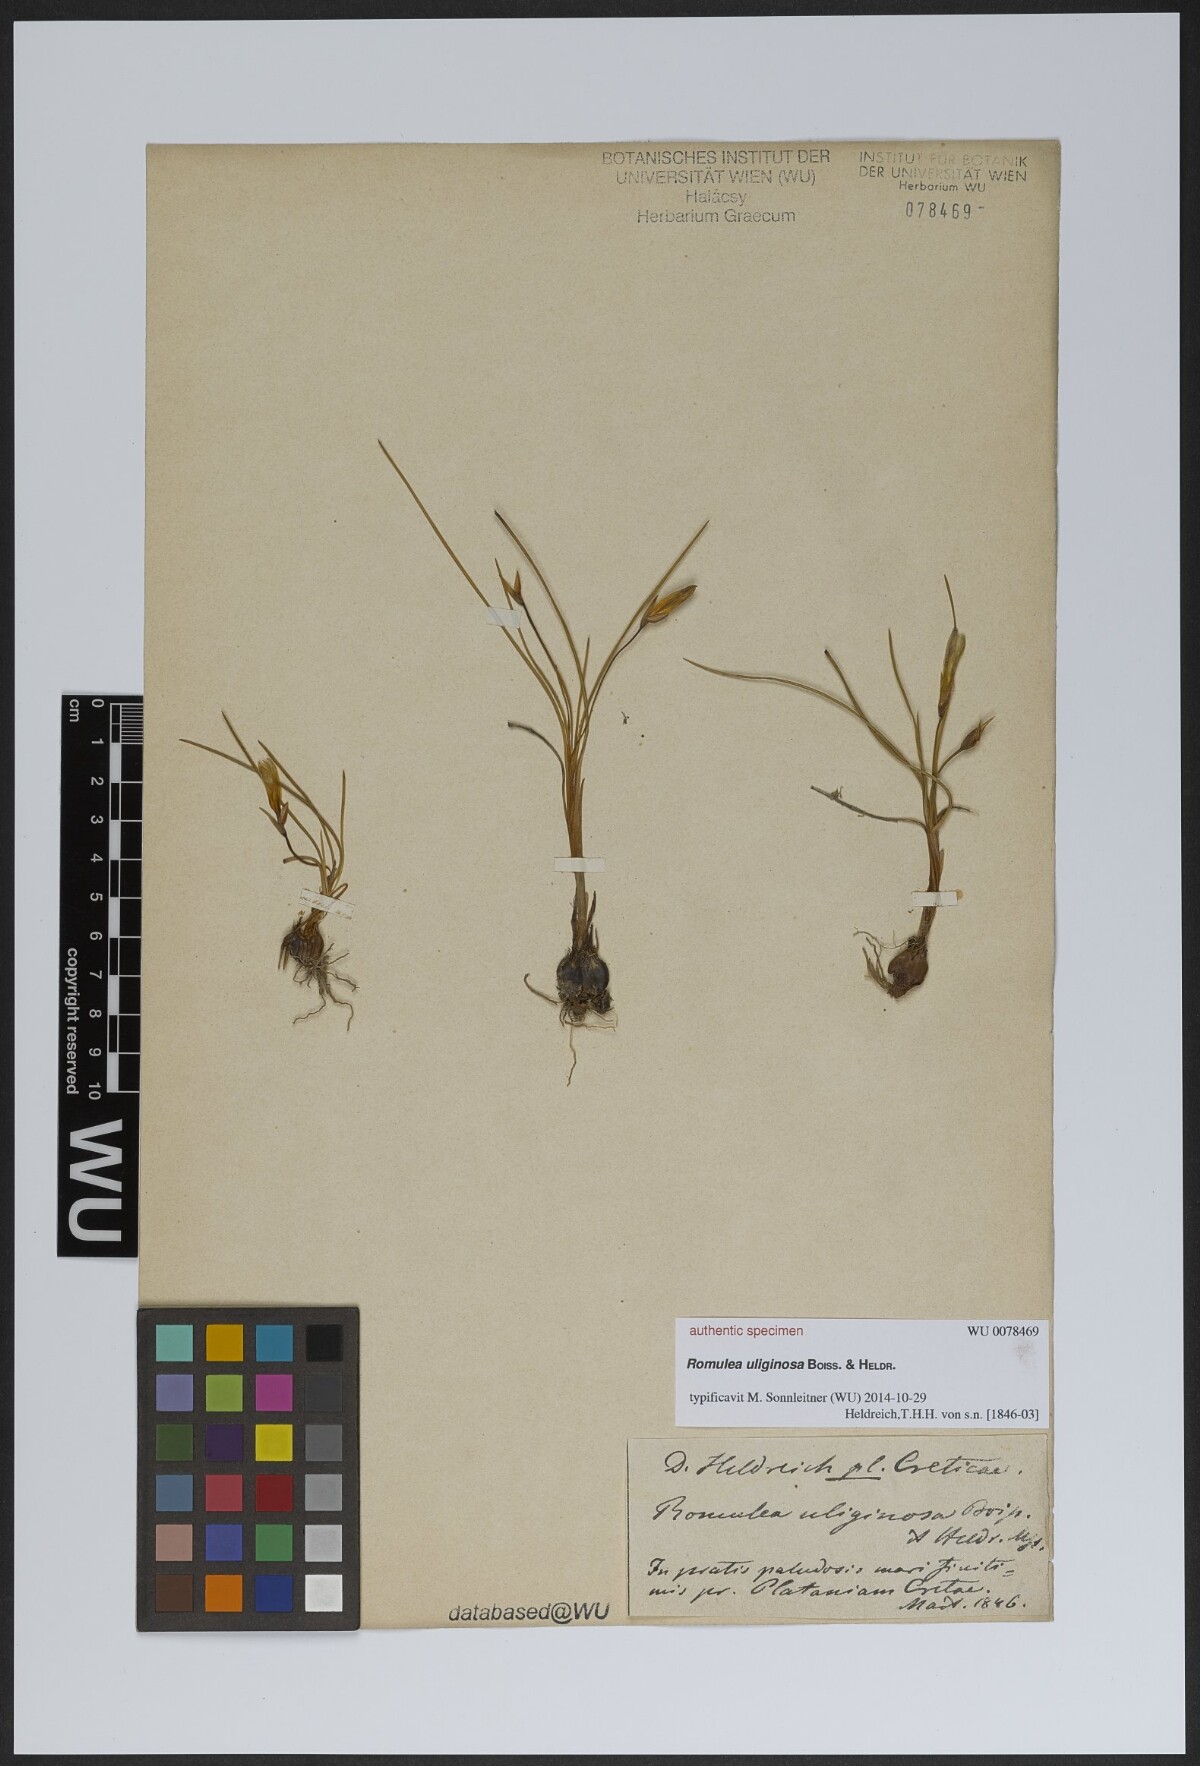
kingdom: Plantae
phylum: Tracheophyta
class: Liliopsida
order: Asparagales
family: Iridaceae
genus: Romulea
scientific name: Romulea bulbocodium
